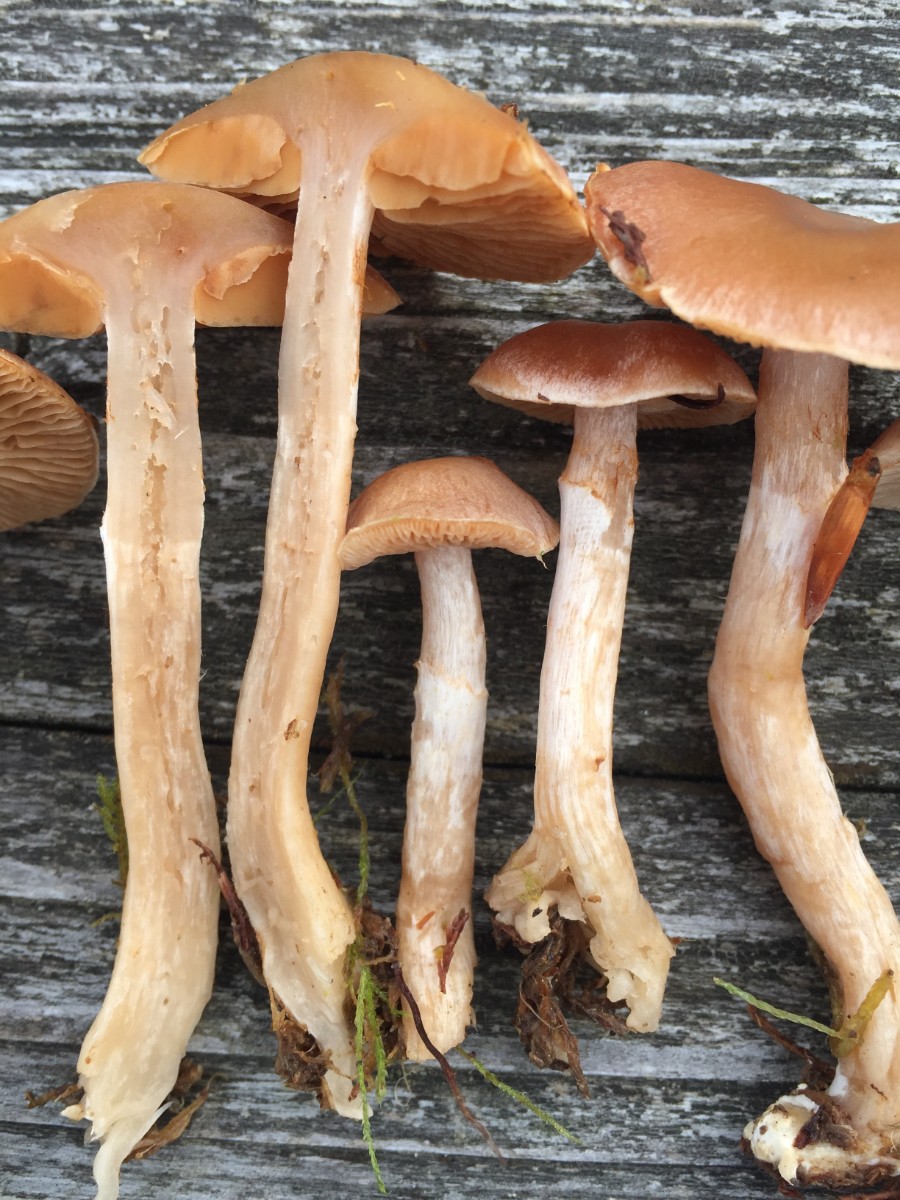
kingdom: Fungi
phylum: Basidiomycota
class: Agaricomycetes
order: Agaricales
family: Cortinariaceae
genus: Cortinarius
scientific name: Cortinarius hydrotelamonioides
